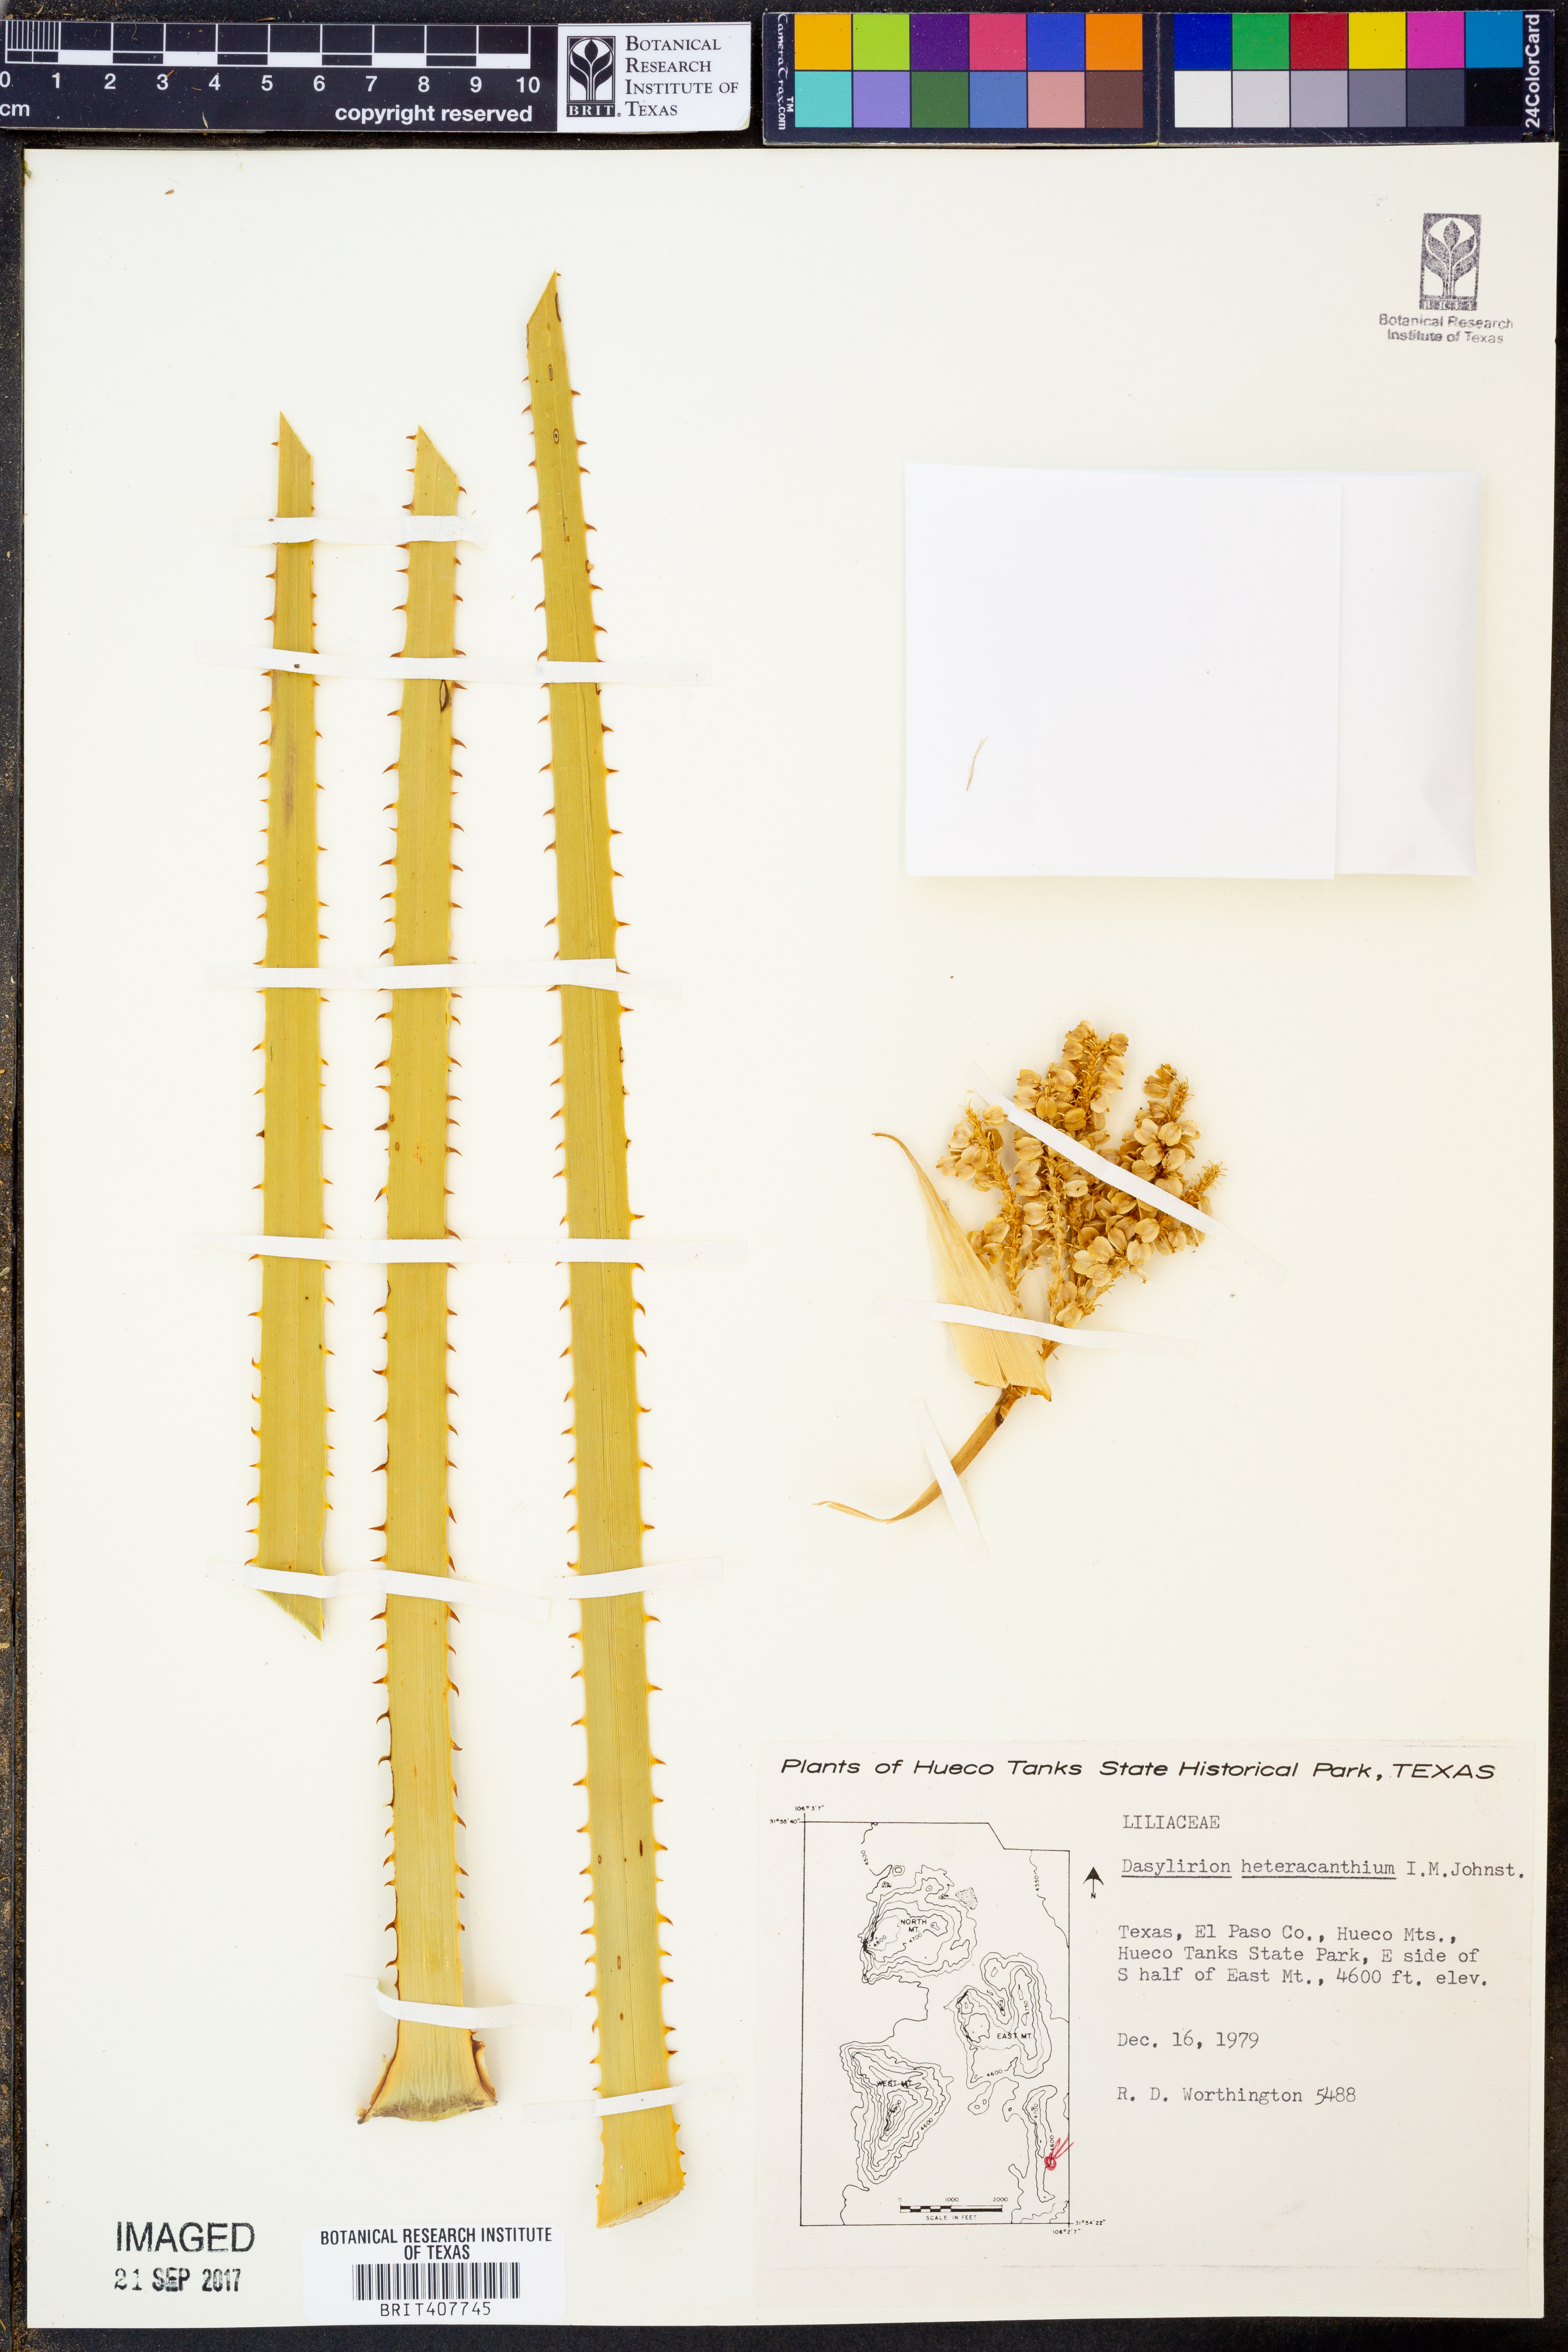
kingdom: Plantae
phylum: Tracheophyta
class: Liliopsida
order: Asparagales
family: Asparagaceae
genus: Dasylirion
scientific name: Dasylirion leiophyllum
